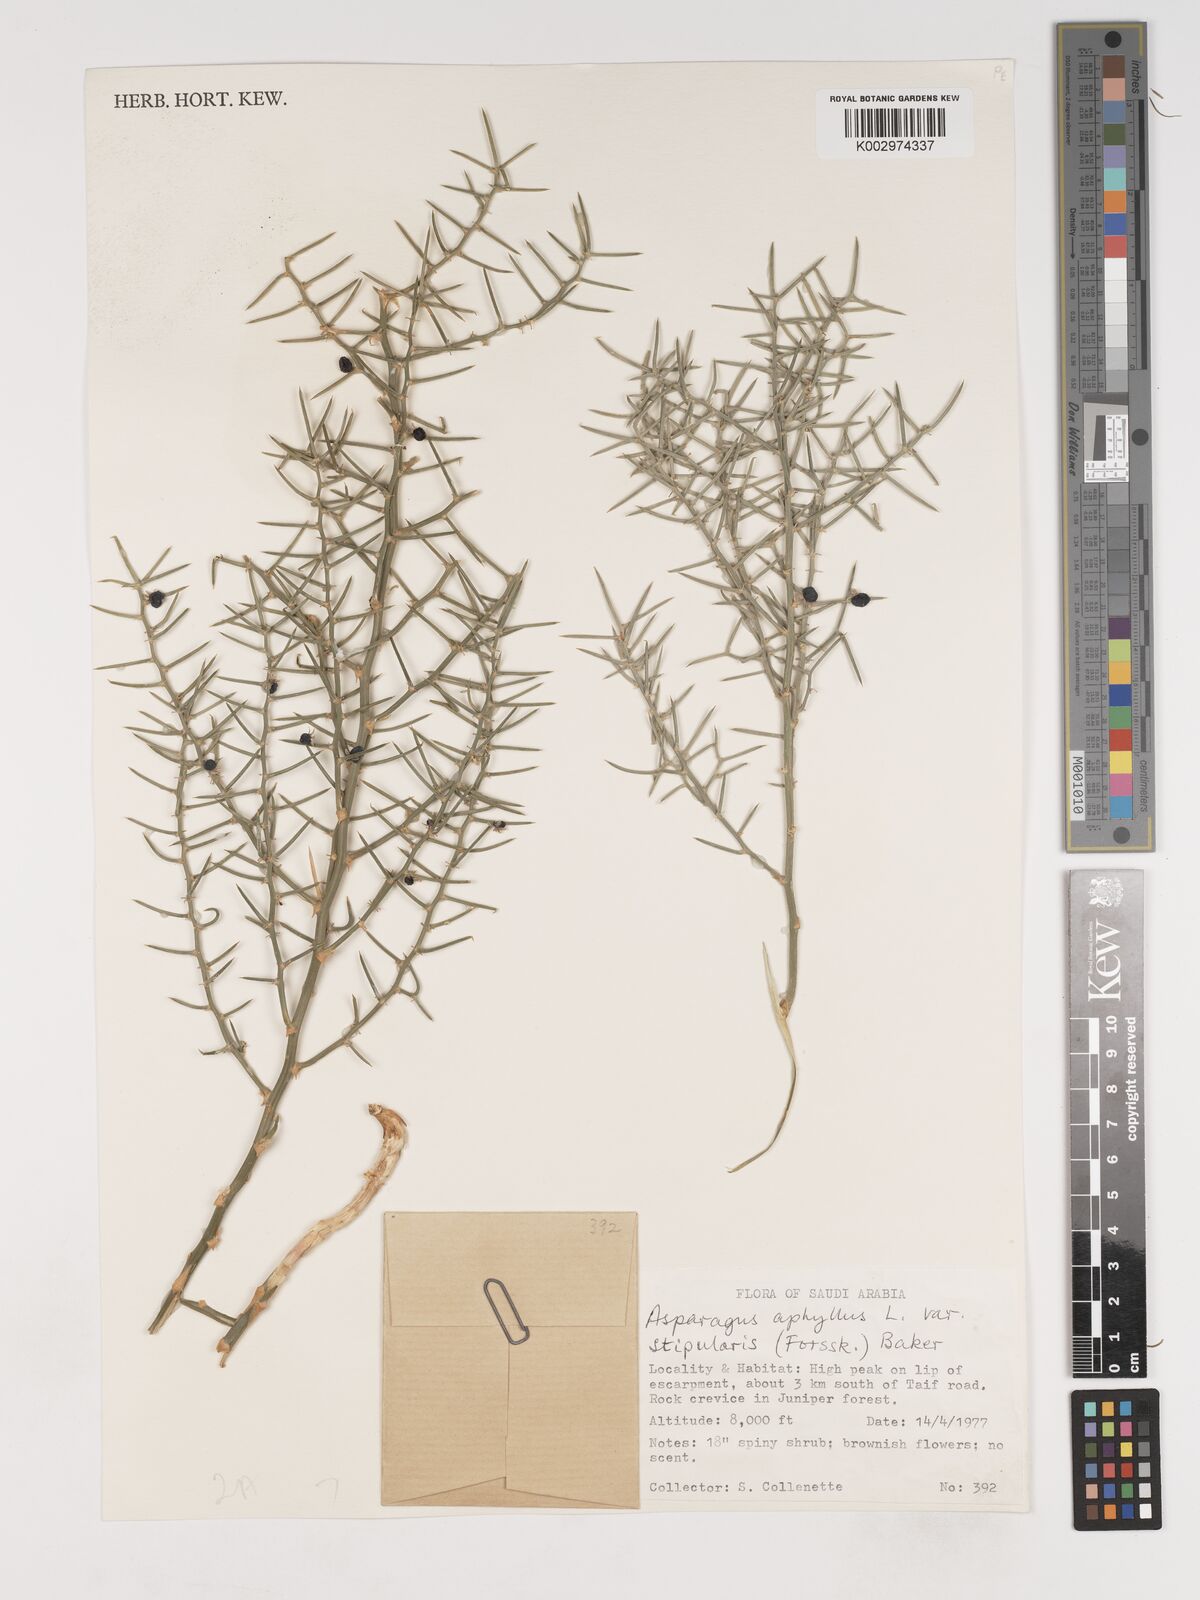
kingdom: Plantae
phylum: Tracheophyta
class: Liliopsida
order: Asparagales
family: Asparagaceae
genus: Asparagus
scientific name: Asparagus horridus
